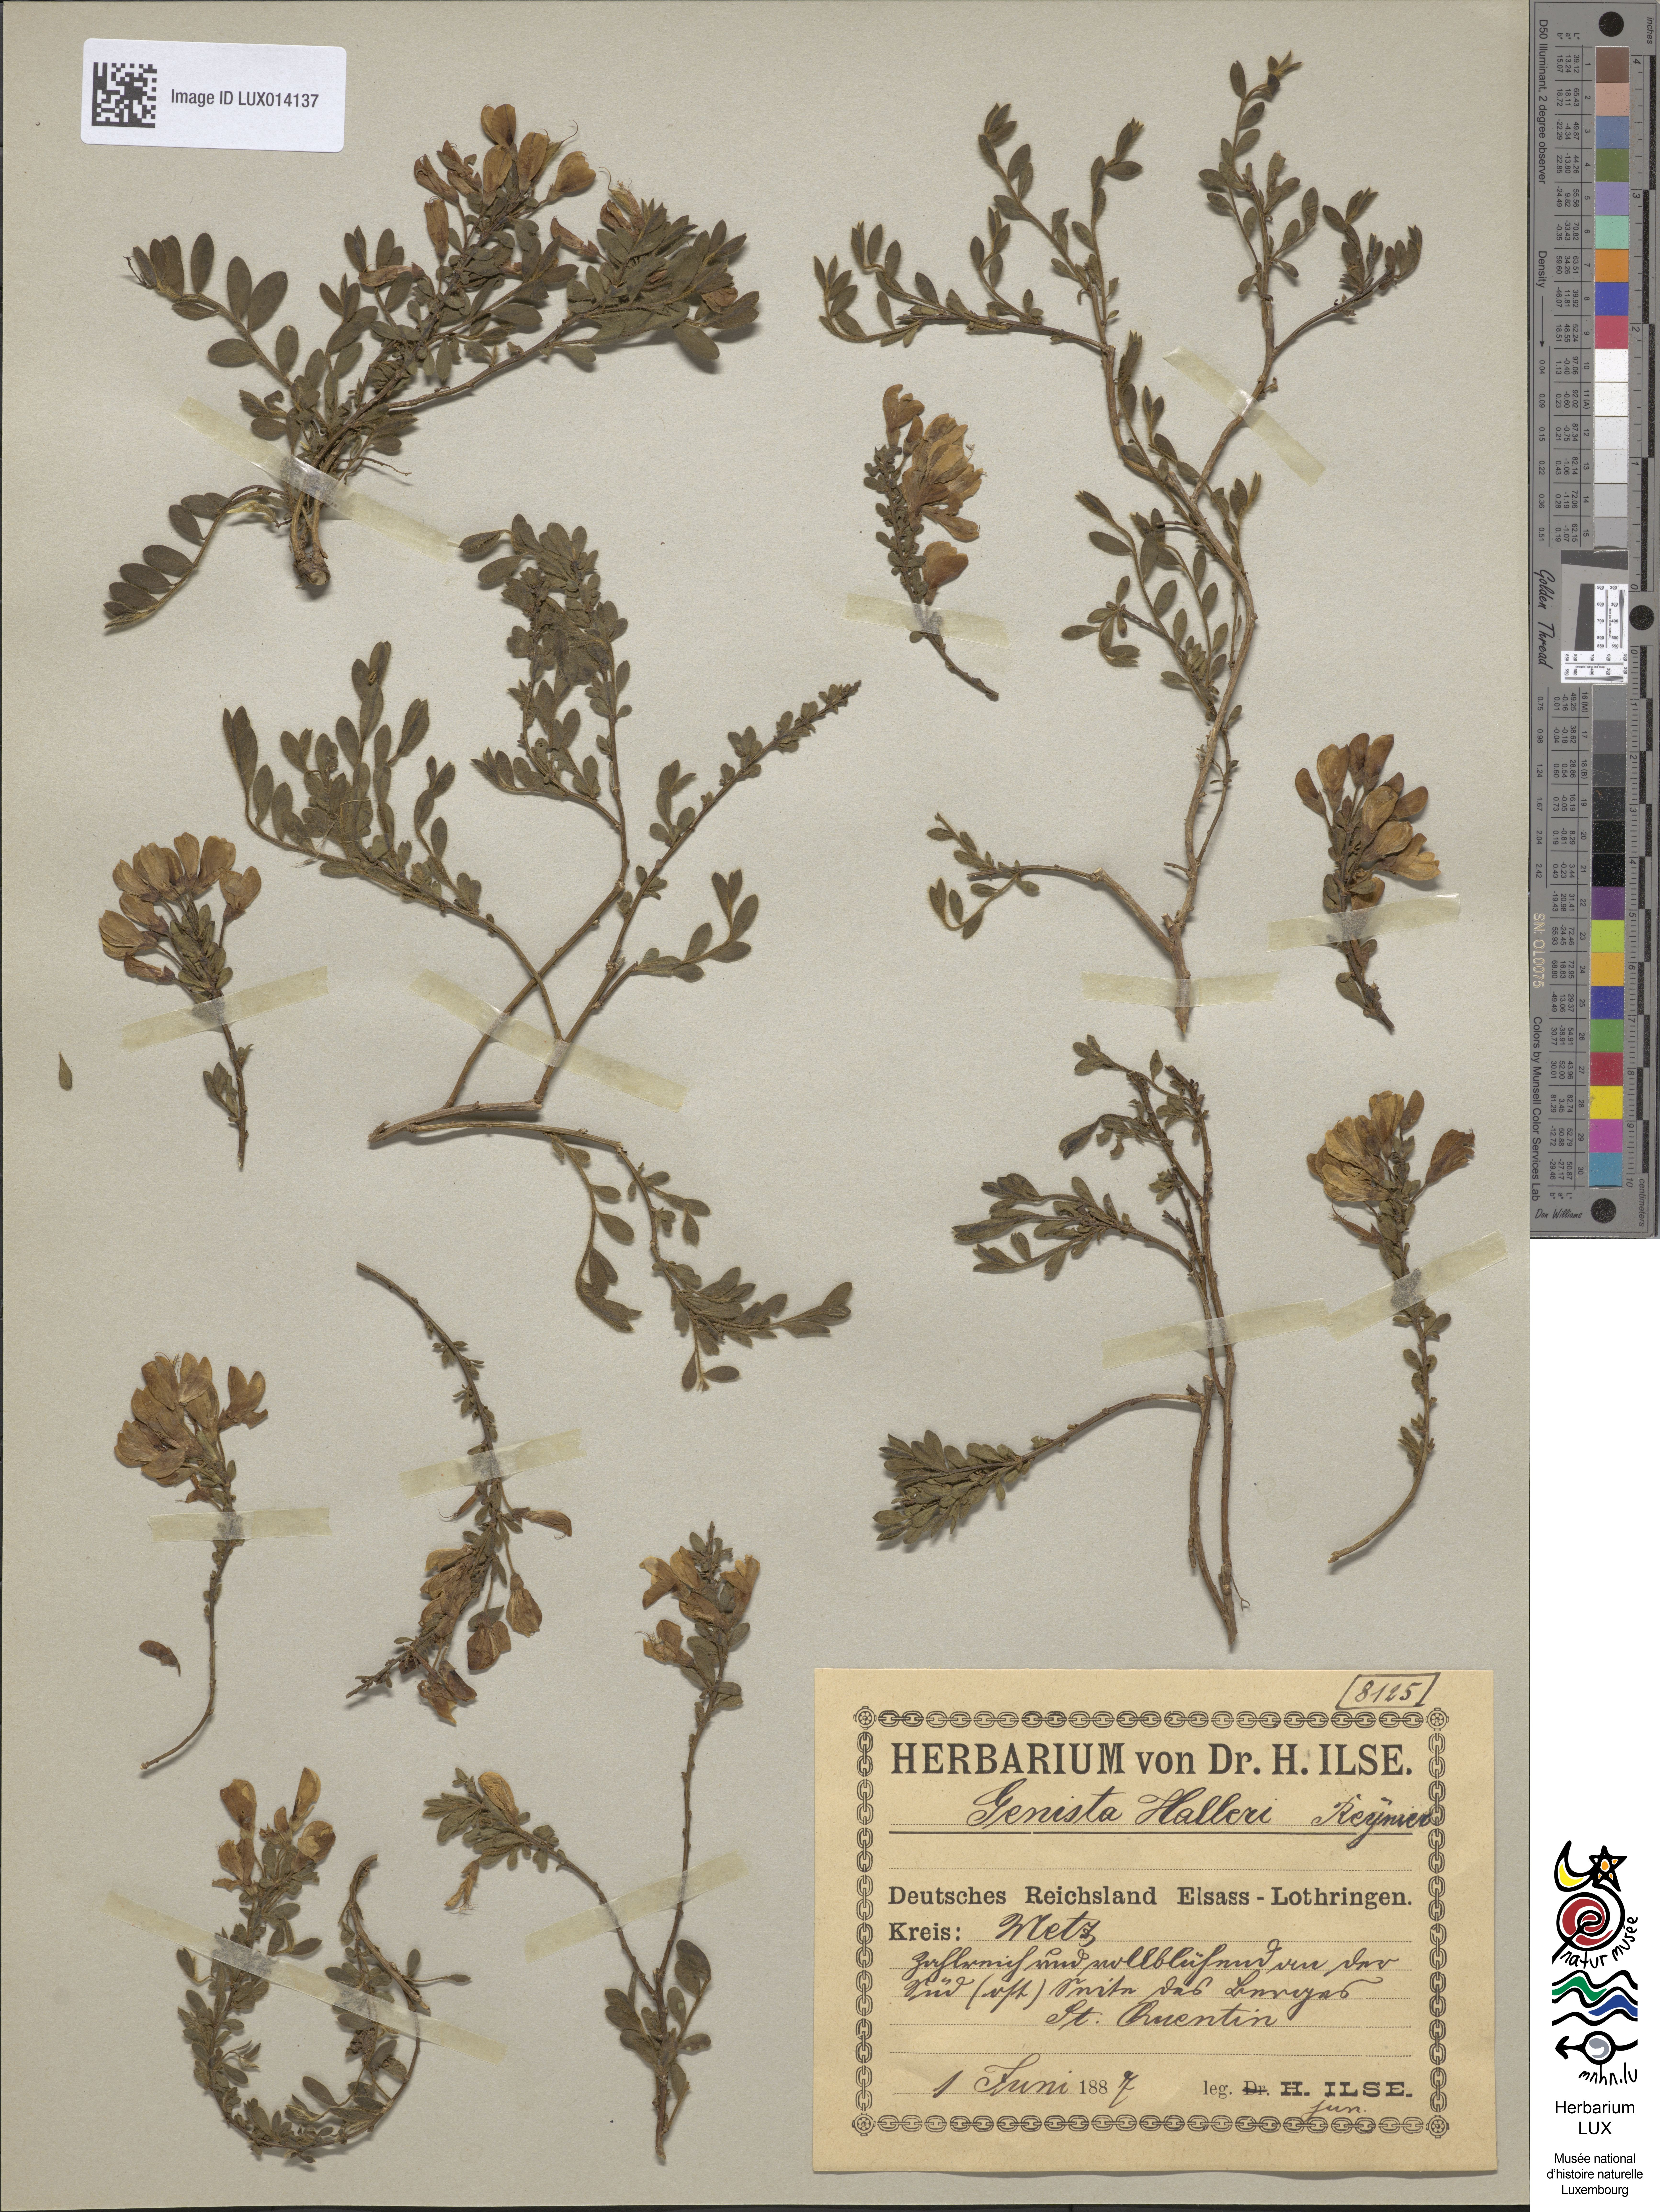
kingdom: Plantae
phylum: Tracheophyta
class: Magnoliopsida
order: Fabales
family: Fabaceae
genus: Cytisus
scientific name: Cytisus decumbens
